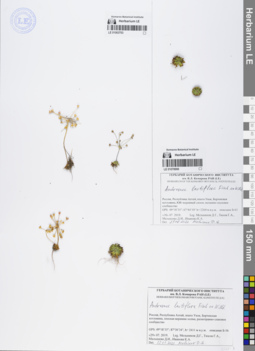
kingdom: Plantae
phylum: Tracheophyta
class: Magnoliopsida
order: Ericales
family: Primulaceae
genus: Androsace
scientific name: Androsace lactiflora
